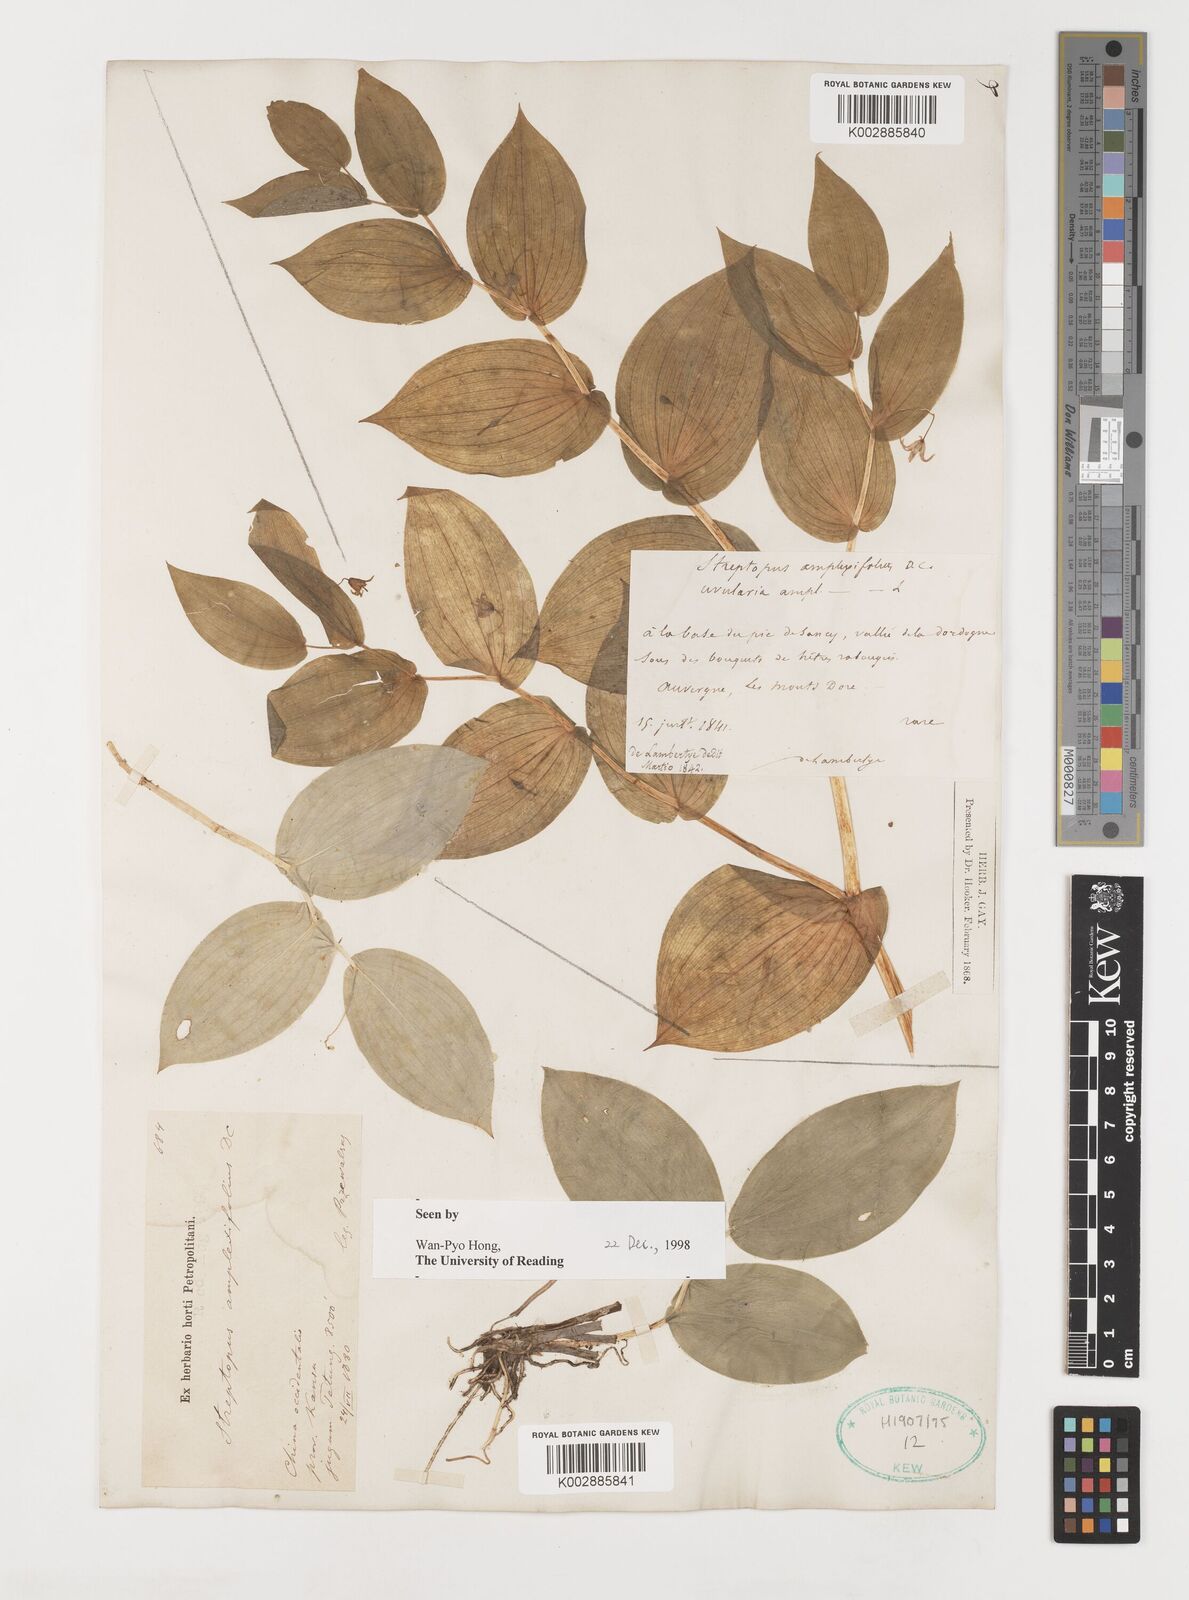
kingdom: Plantae
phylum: Tracheophyta
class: Liliopsida
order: Liliales
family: Liliaceae
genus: Streptopus
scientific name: Streptopus amplexifolius
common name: Clasp twisted stalk
